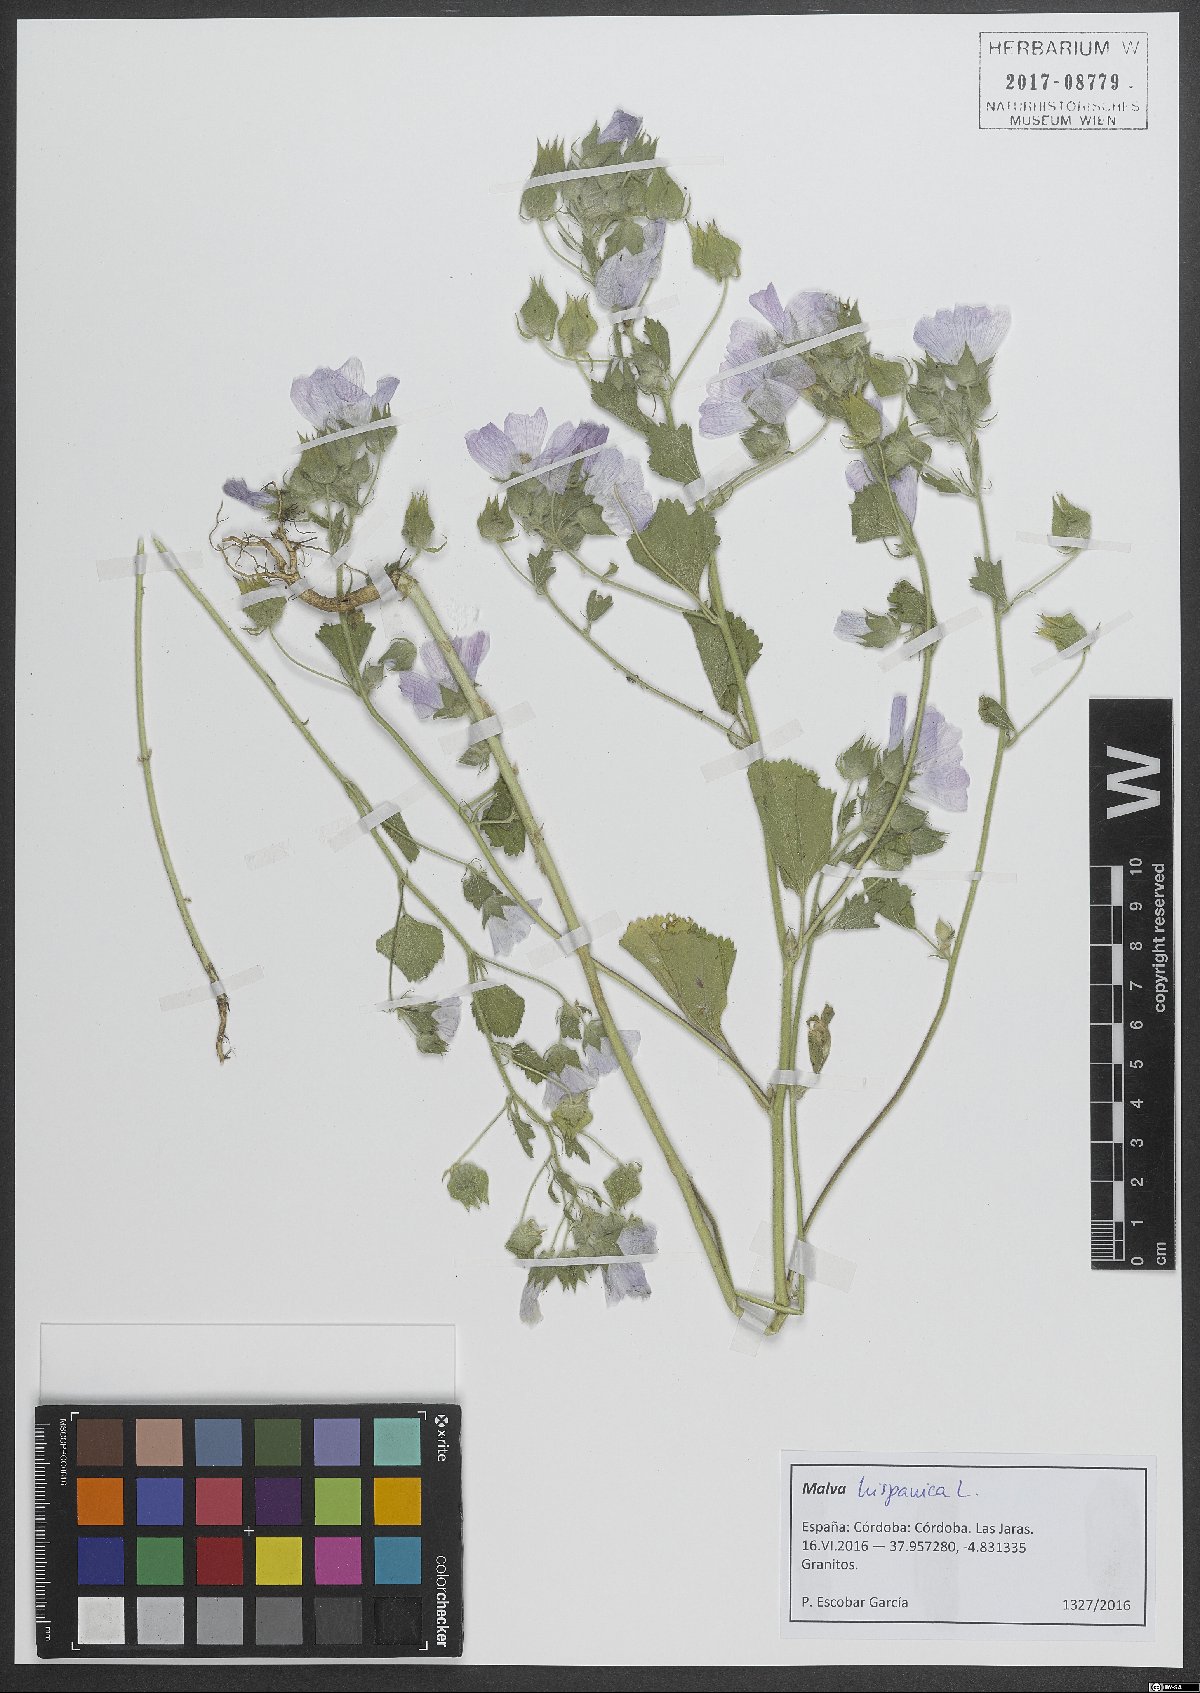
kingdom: Plantae
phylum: Tracheophyta
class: Magnoliopsida
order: Malvales
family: Malvaceae
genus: Malva
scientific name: Malva hispanica
